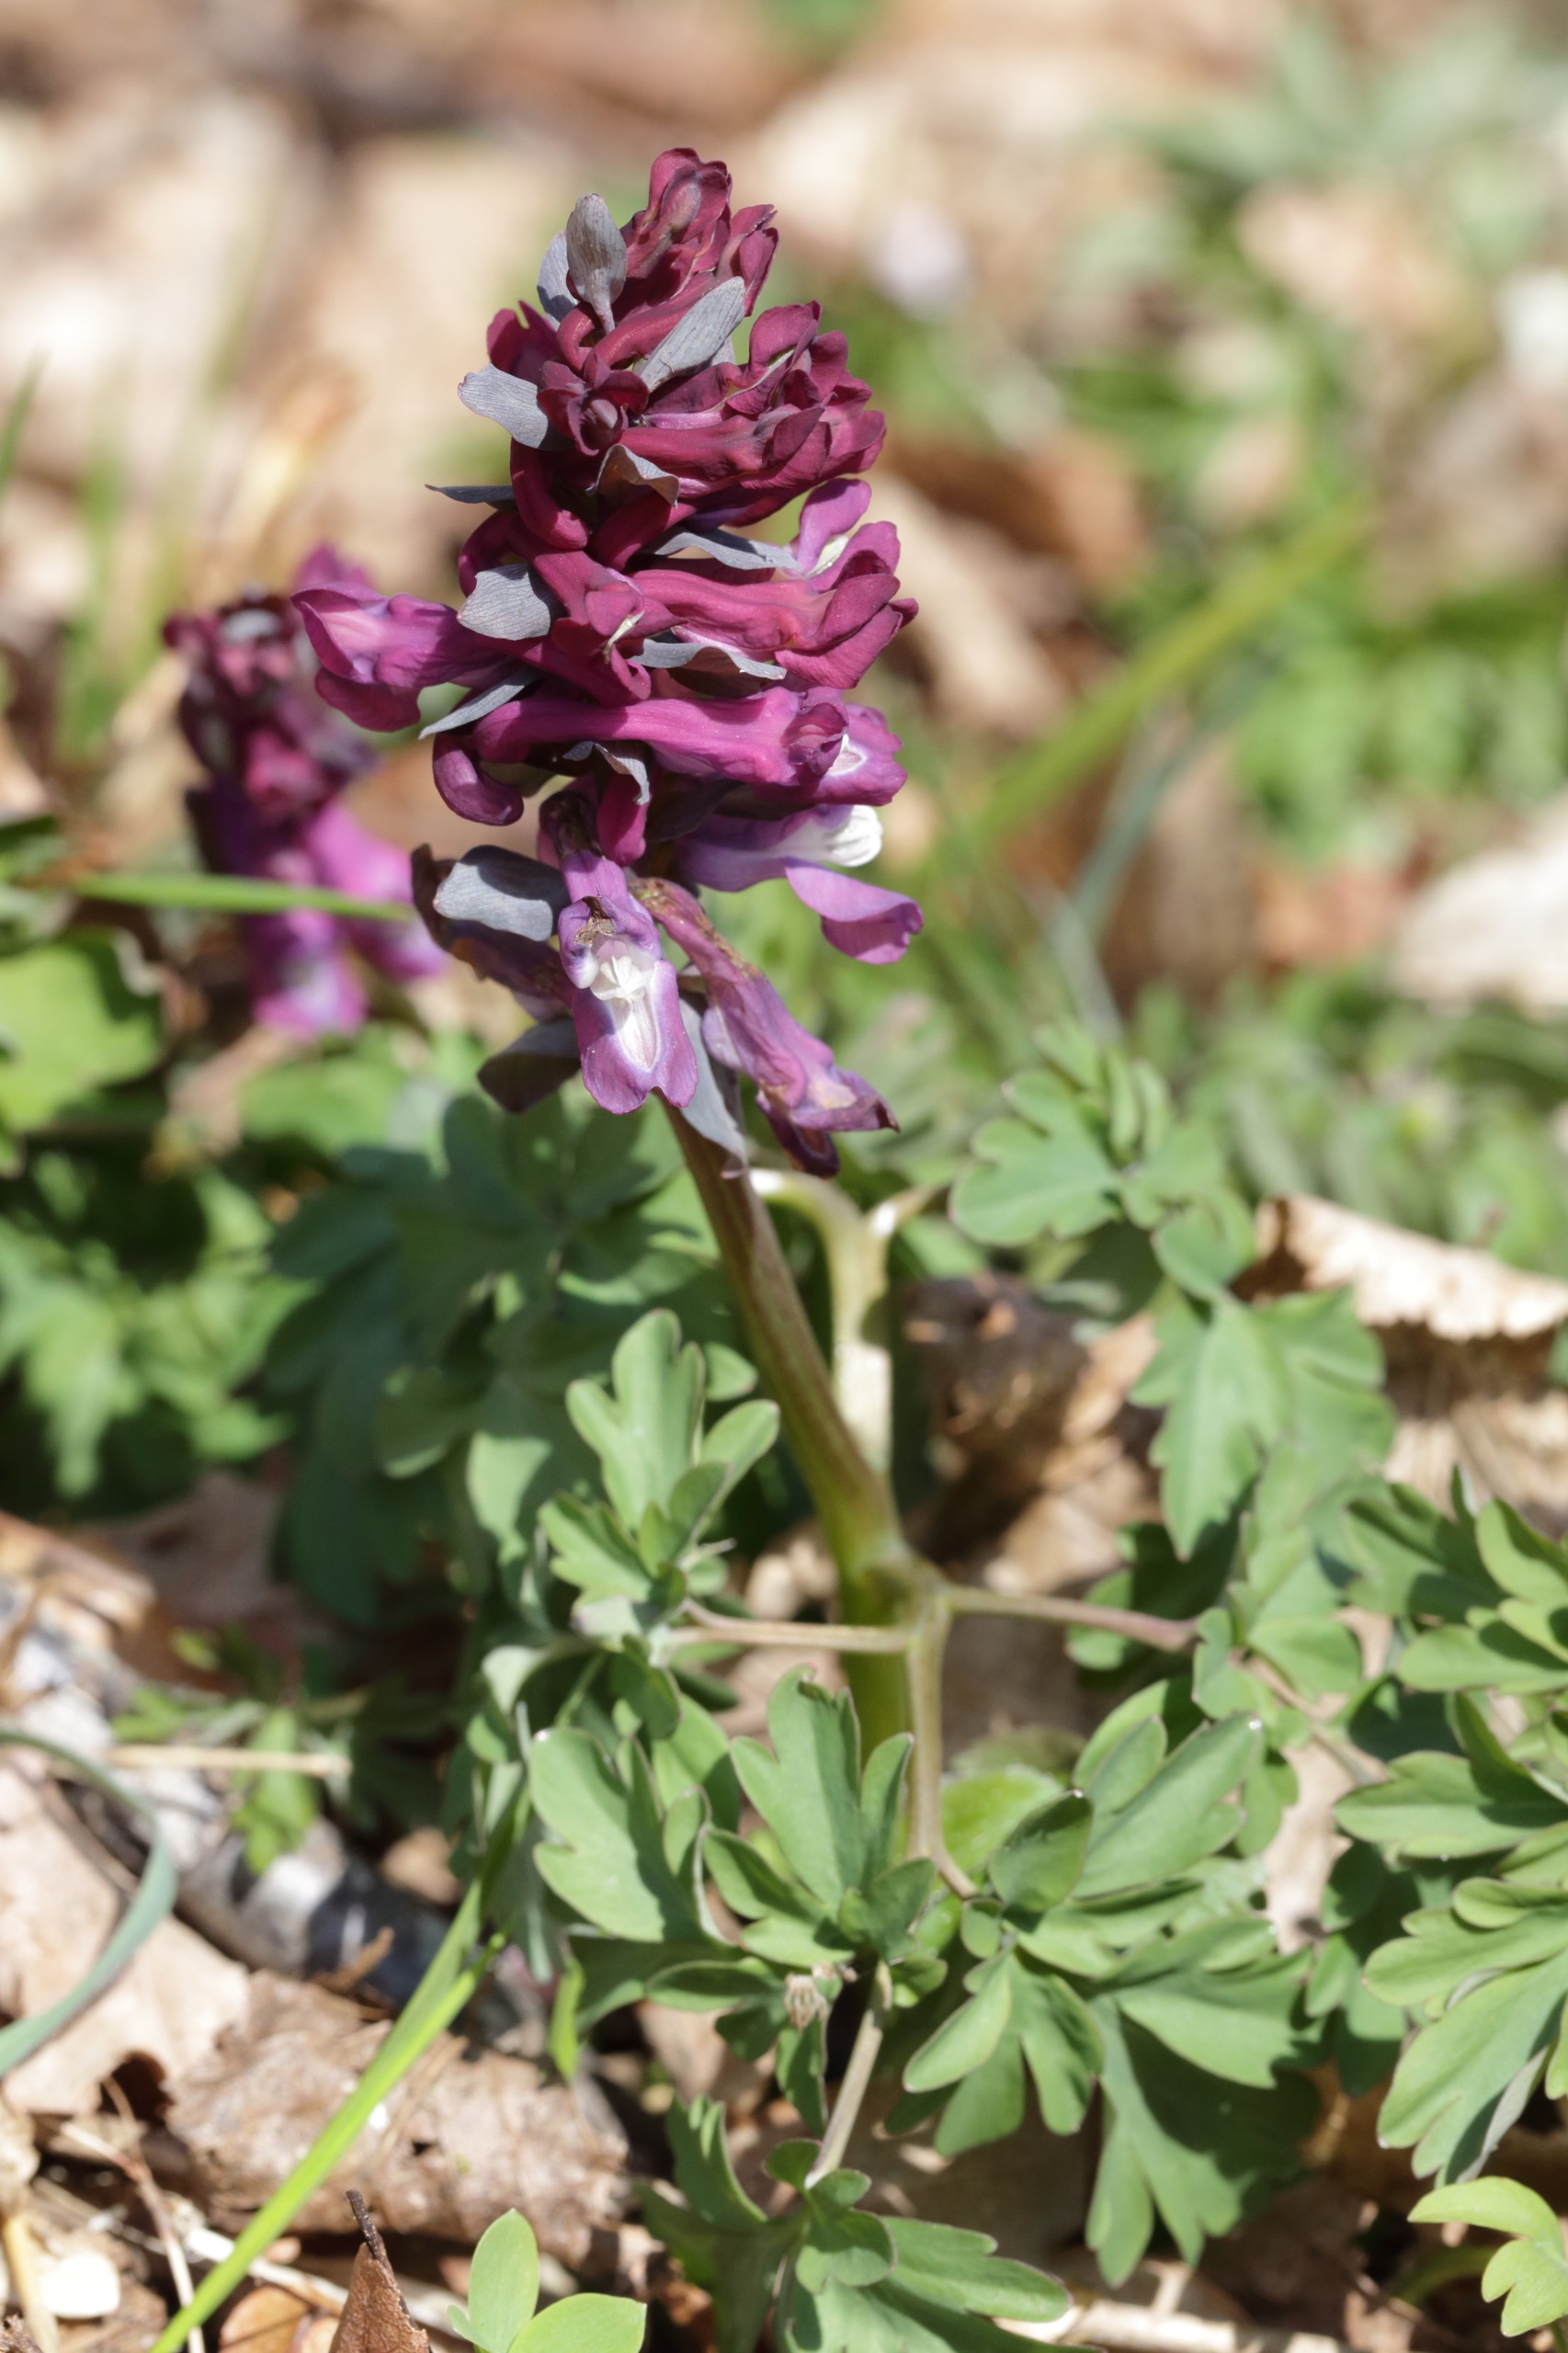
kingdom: Plantae
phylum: Tracheophyta
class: Magnoliopsida
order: Ranunculales
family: Papaveraceae
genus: Corydalis
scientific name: Corydalis cava
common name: Hulrodet lærkespore
